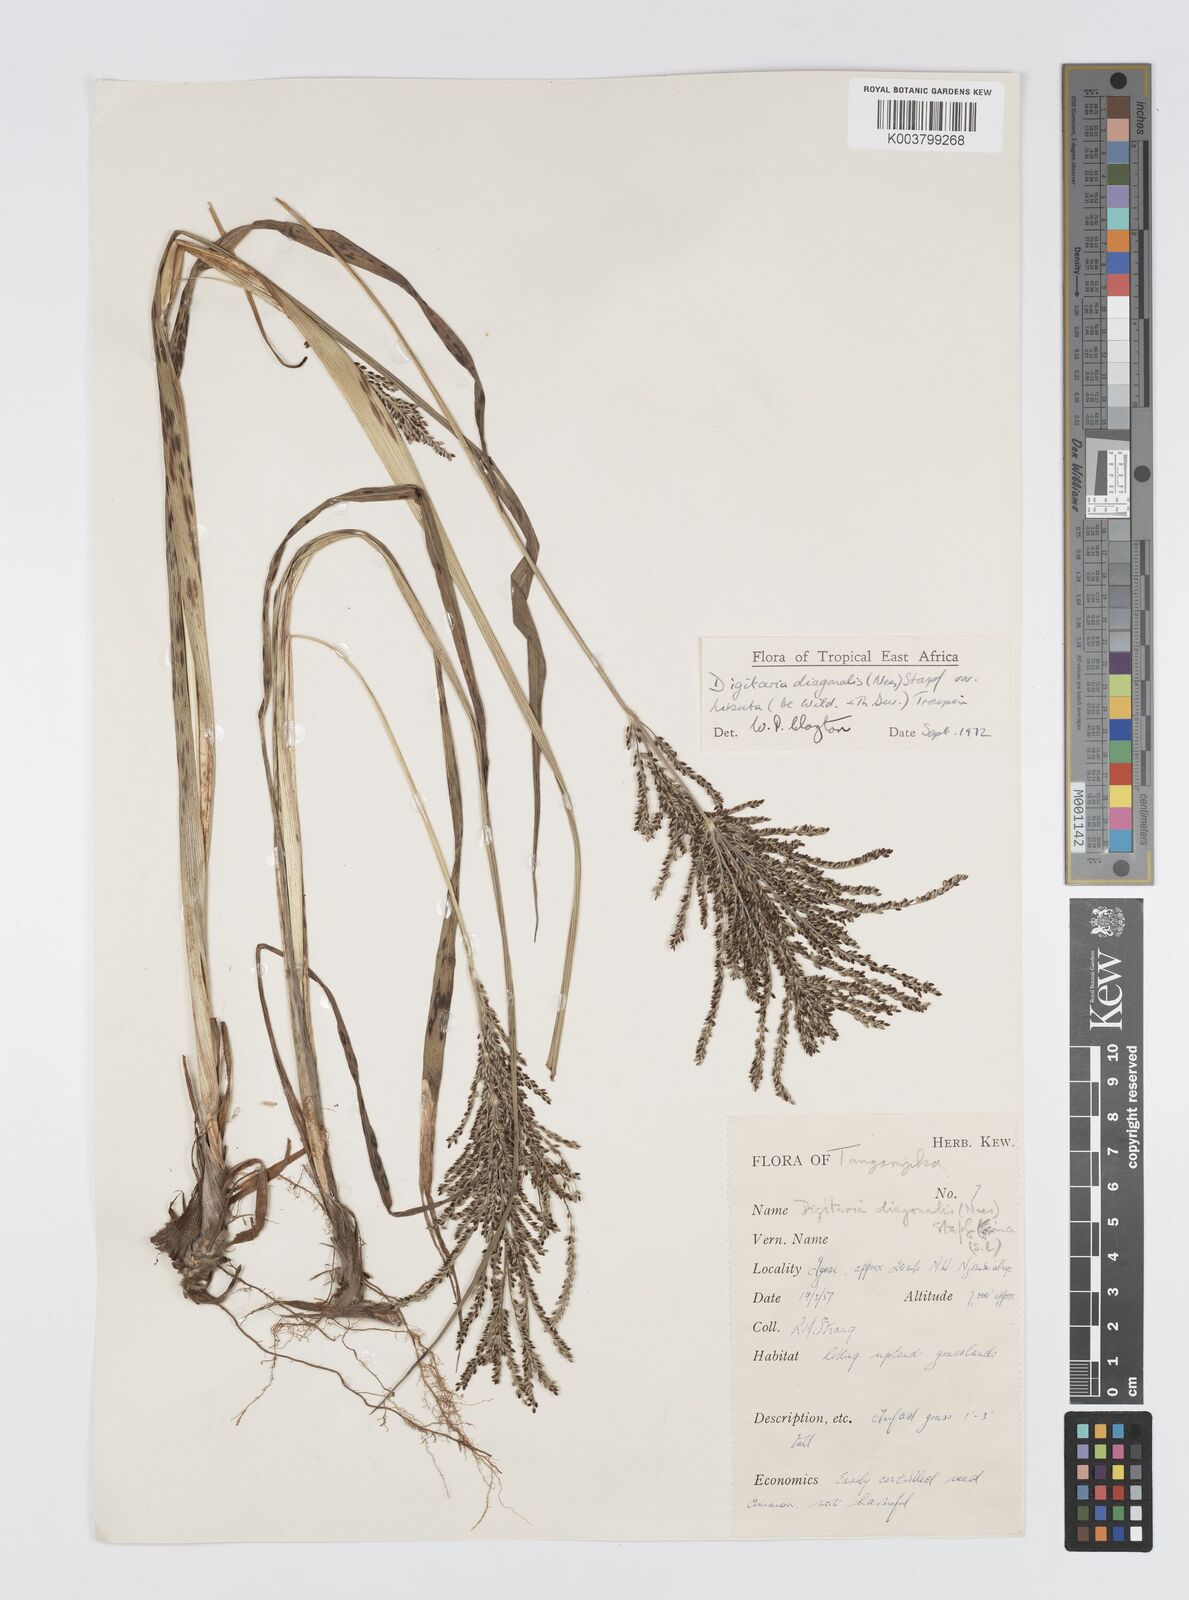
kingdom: Plantae
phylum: Tracheophyta
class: Liliopsida
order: Poales
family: Poaceae
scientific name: Poaceae
